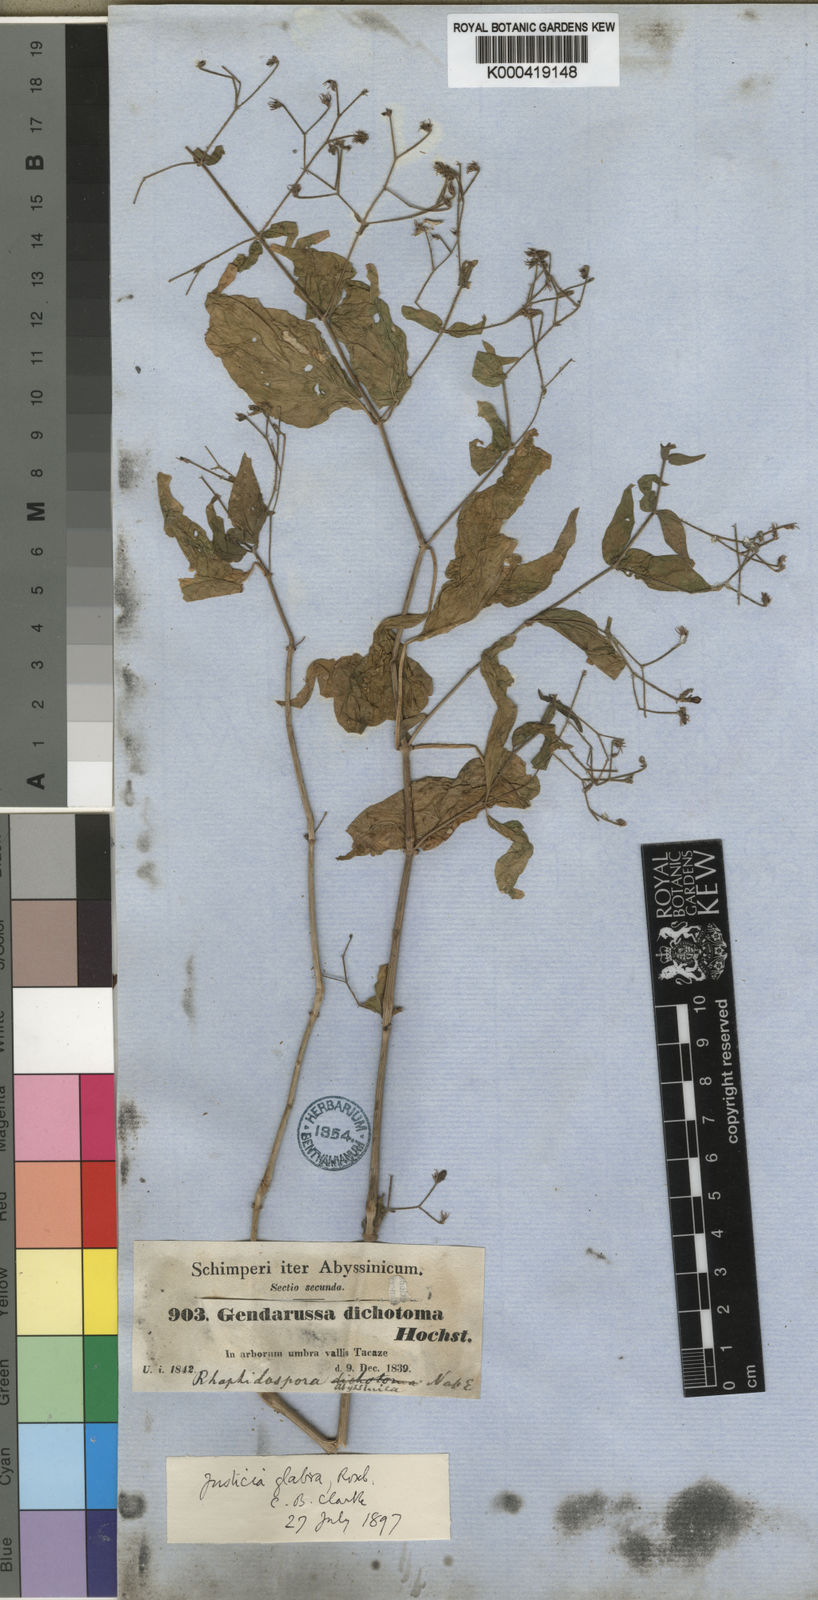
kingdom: Plantae
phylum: Tracheophyta
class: Magnoliopsida
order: Lamiales
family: Acanthaceae
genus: Justicia
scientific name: Justicia
